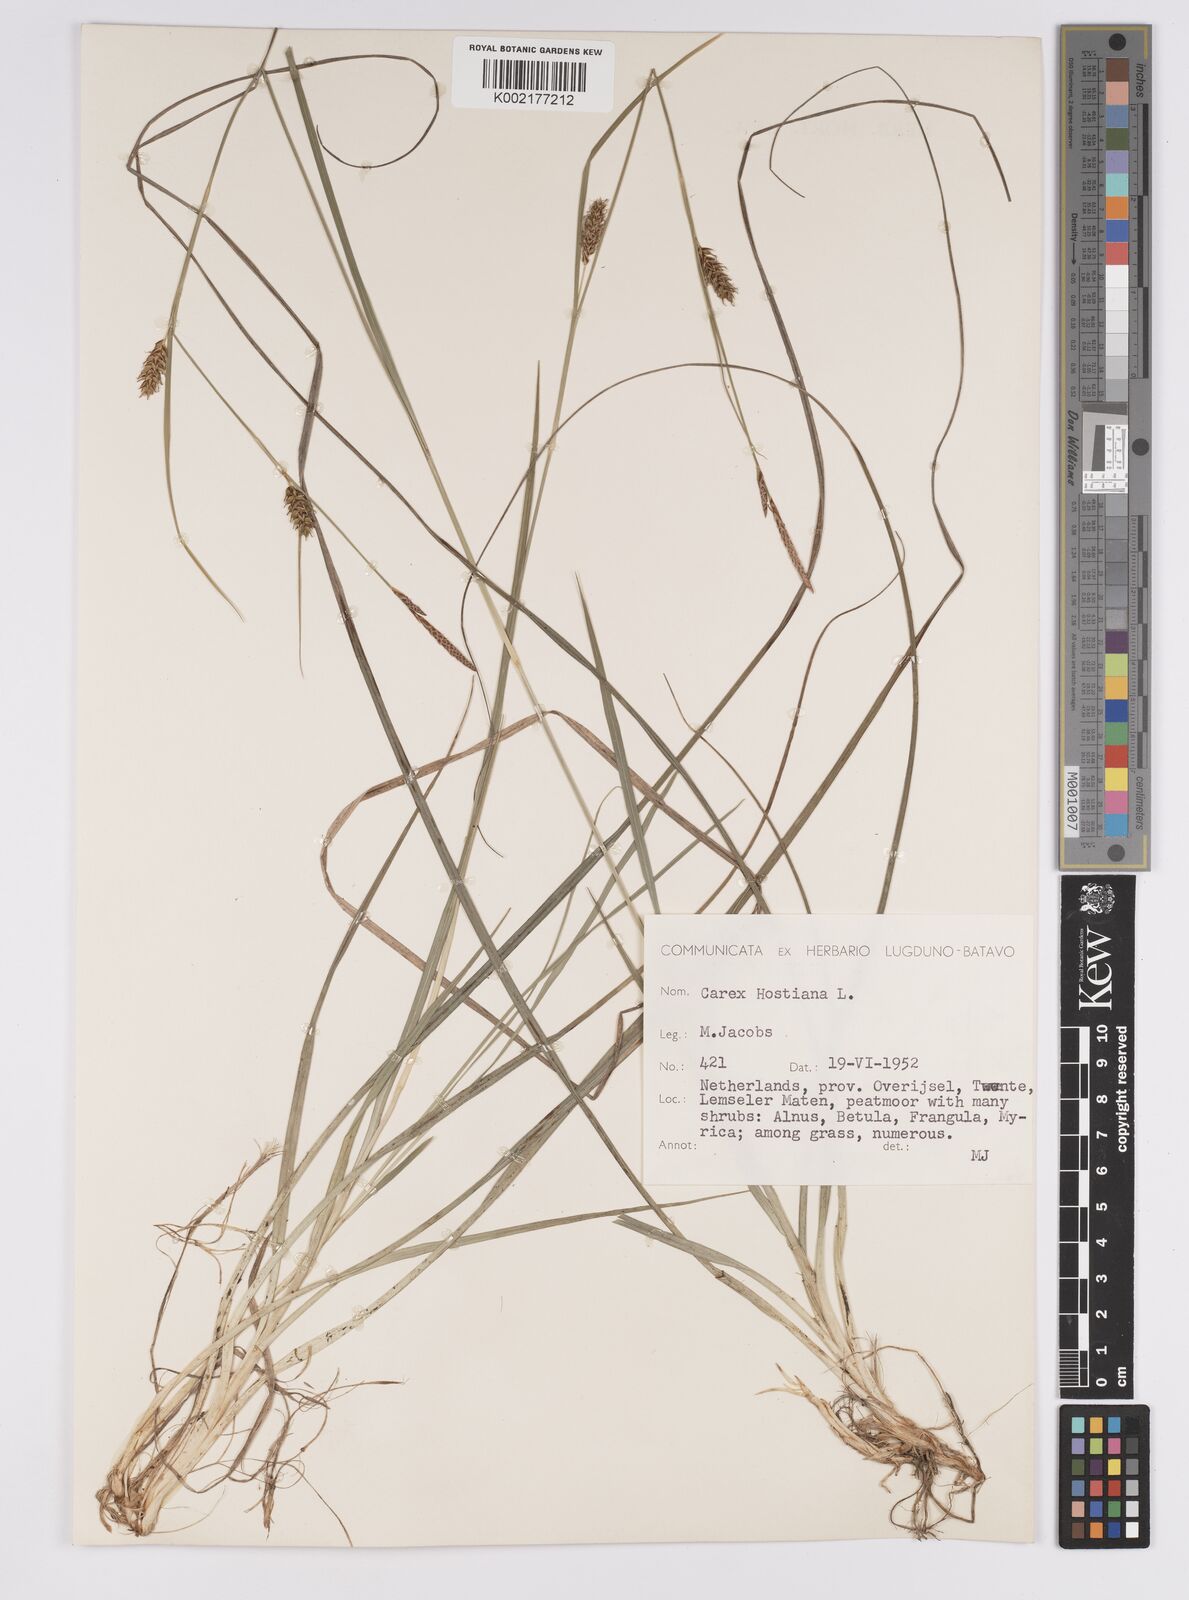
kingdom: Plantae
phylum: Tracheophyta
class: Liliopsida
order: Poales
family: Cyperaceae
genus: Carex
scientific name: Carex hostiana
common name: Tawny sedge
